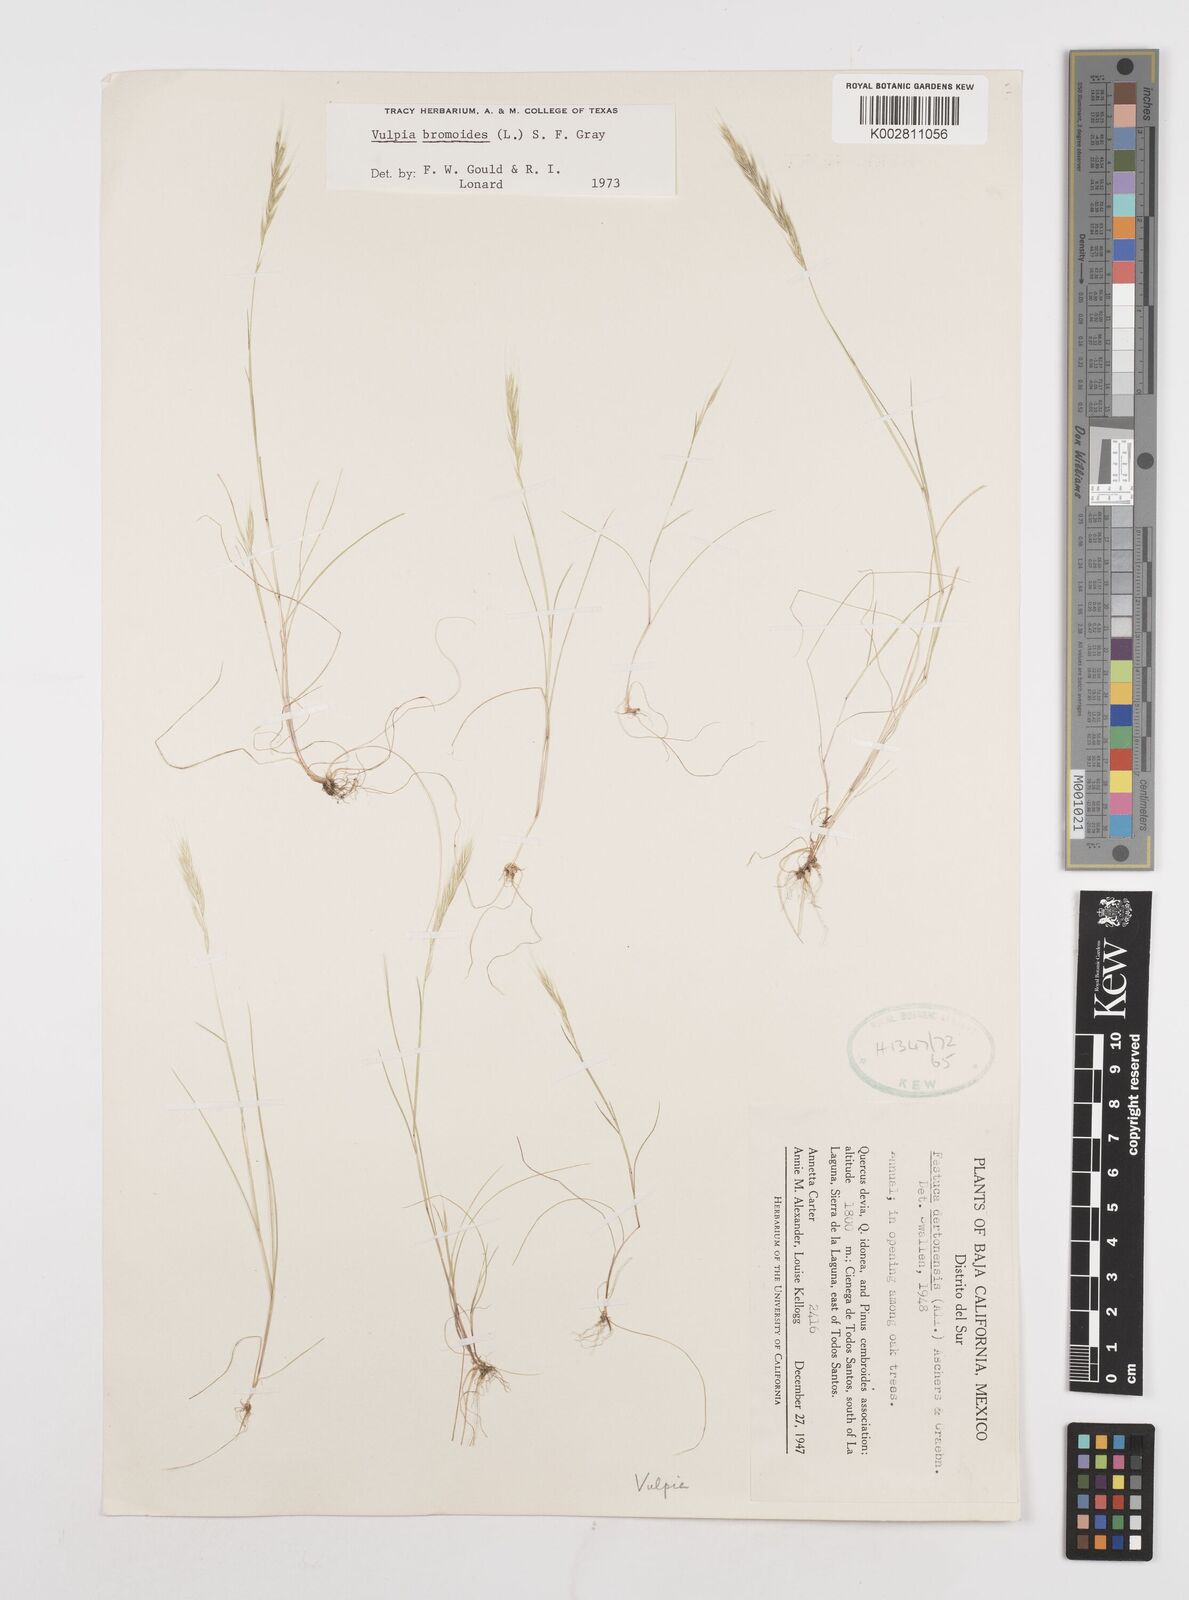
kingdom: Plantae
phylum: Tracheophyta
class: Liliopsida
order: Poales
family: Poaceae
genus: Festuca
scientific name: Festuca bromoides
